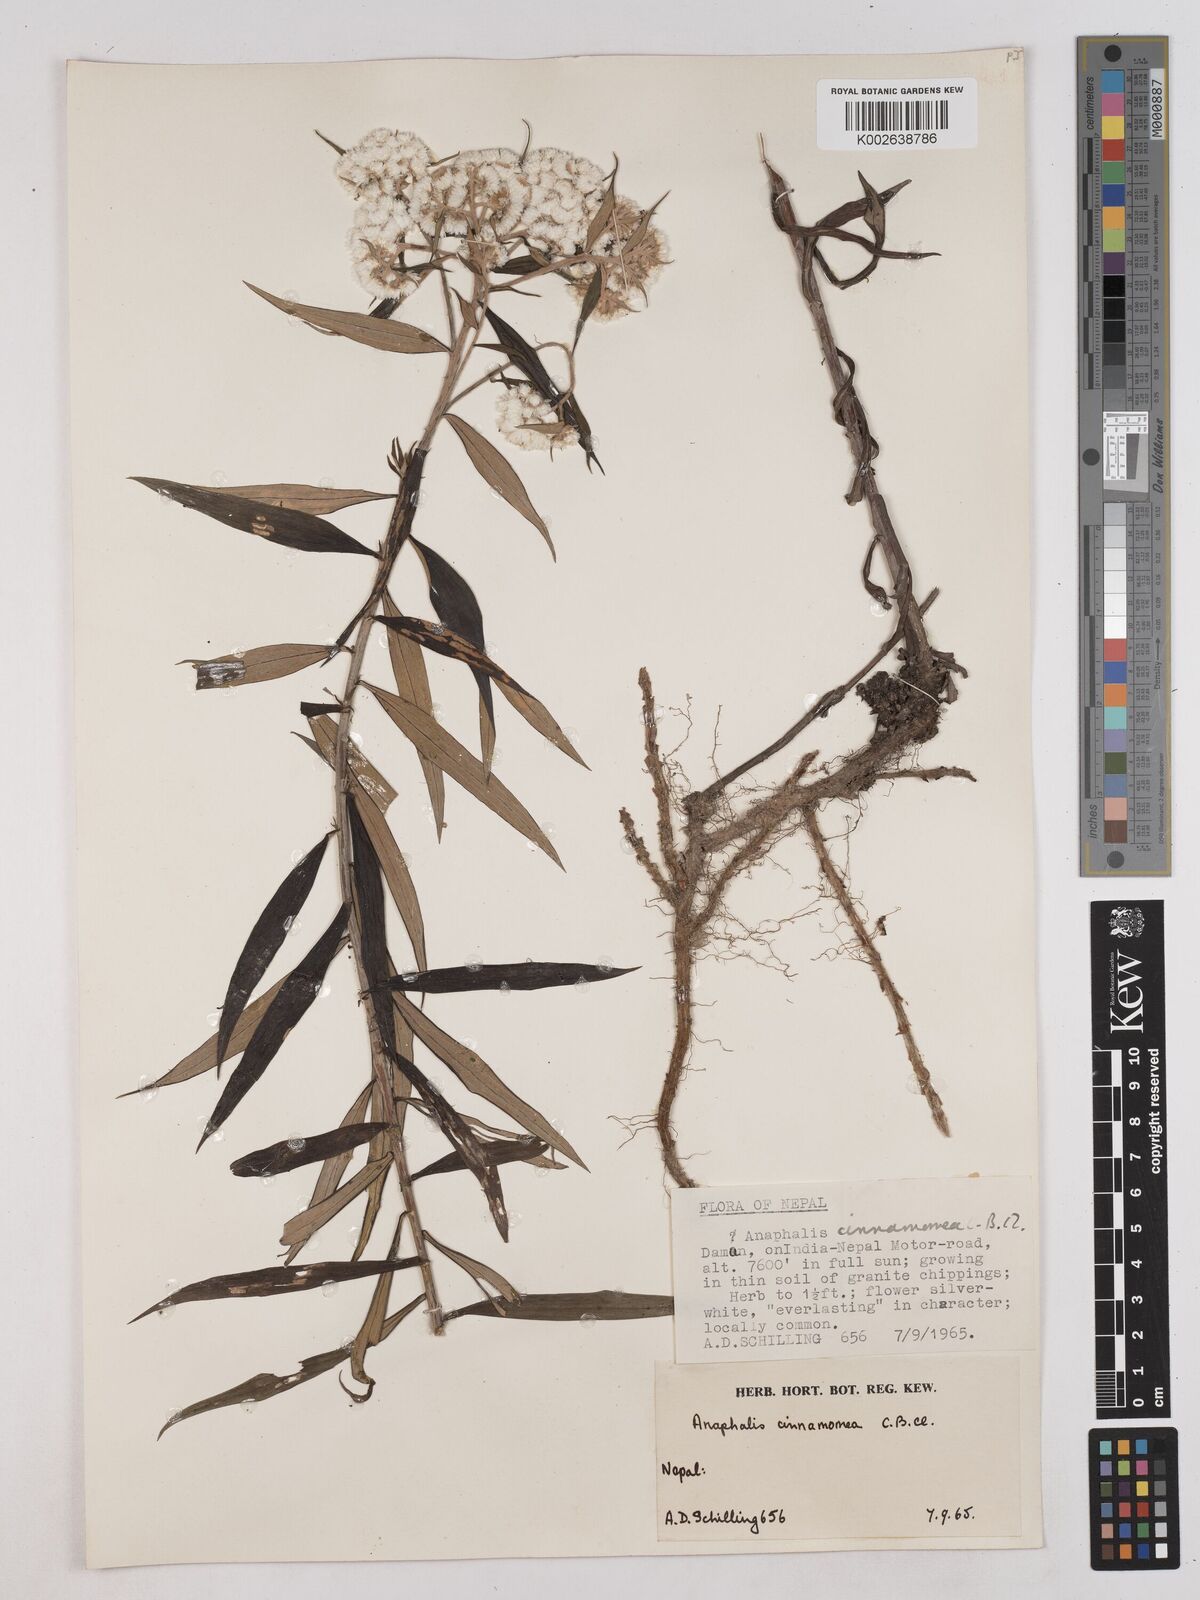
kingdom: Plantae
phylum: Tracheophyta
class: Magnoliopsida
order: Asterales
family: Asteraceae
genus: Anaphalis
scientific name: Anaphalis marcescens
